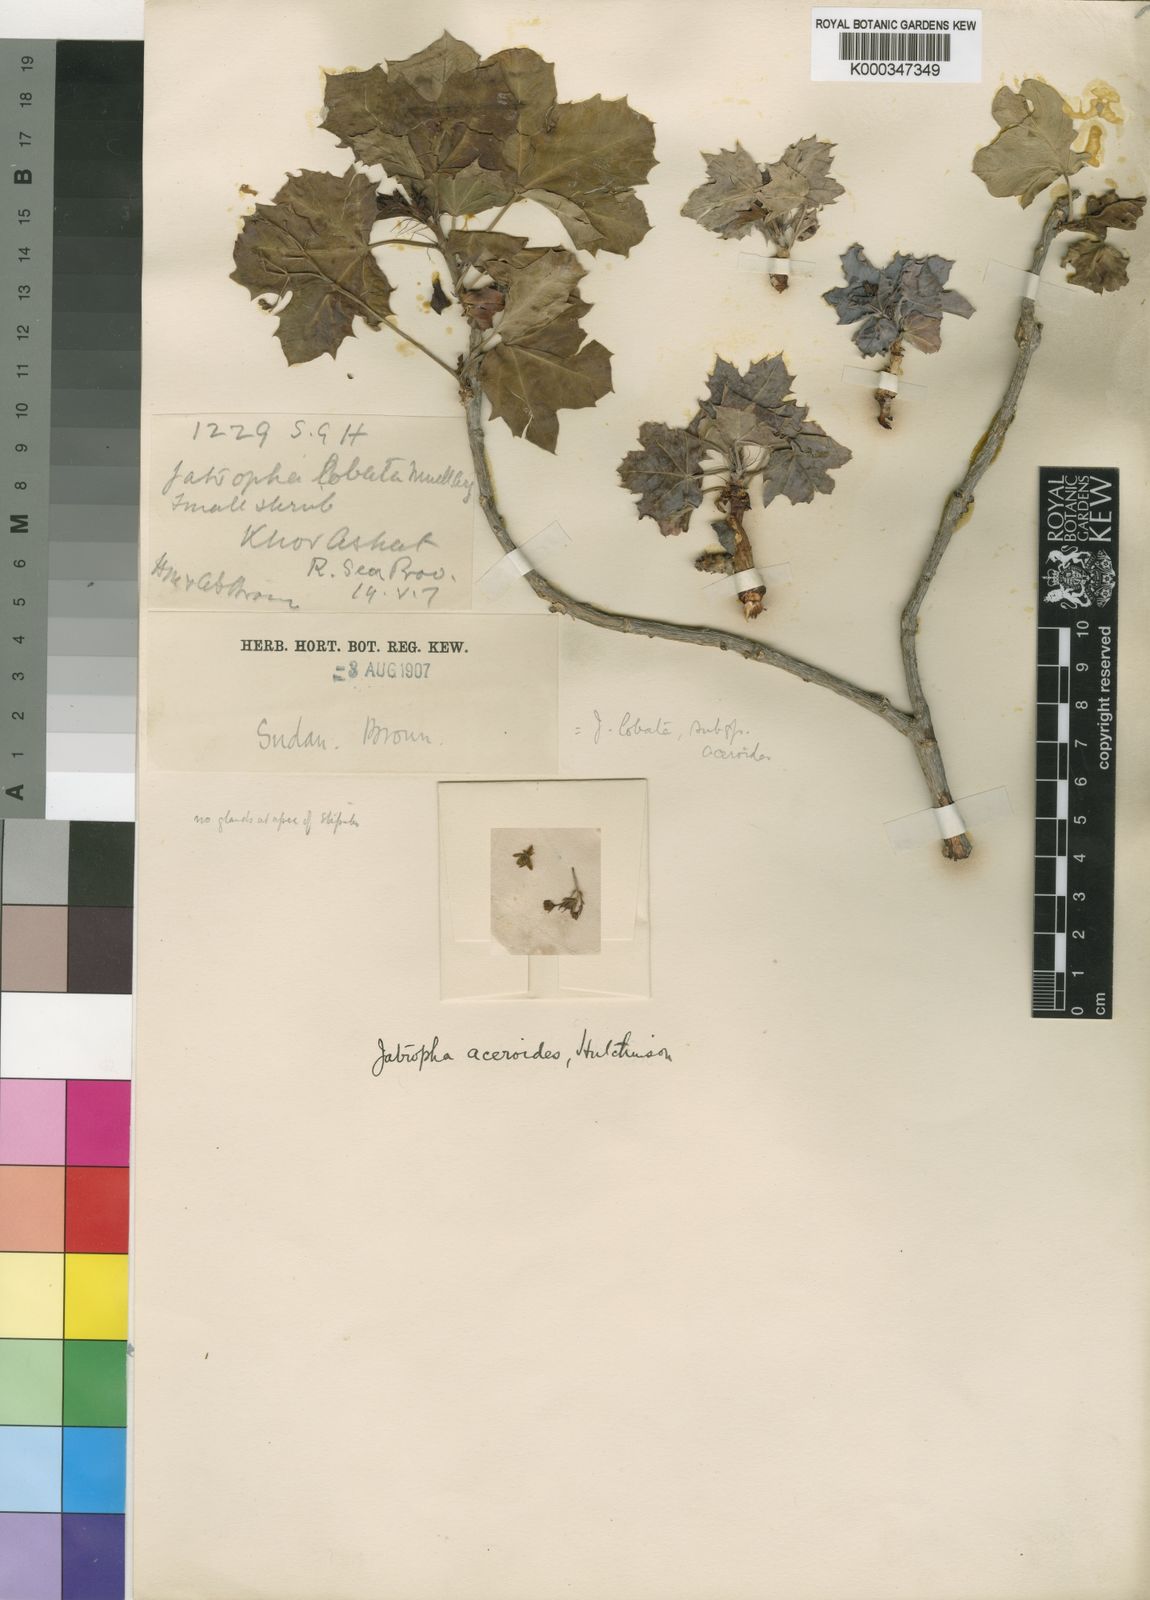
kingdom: Plantae
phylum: Tracheophyta
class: Magnoliopsida
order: Malpighiales
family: Euphorbiaceae
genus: Jatropha
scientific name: Jatropha aceroides
